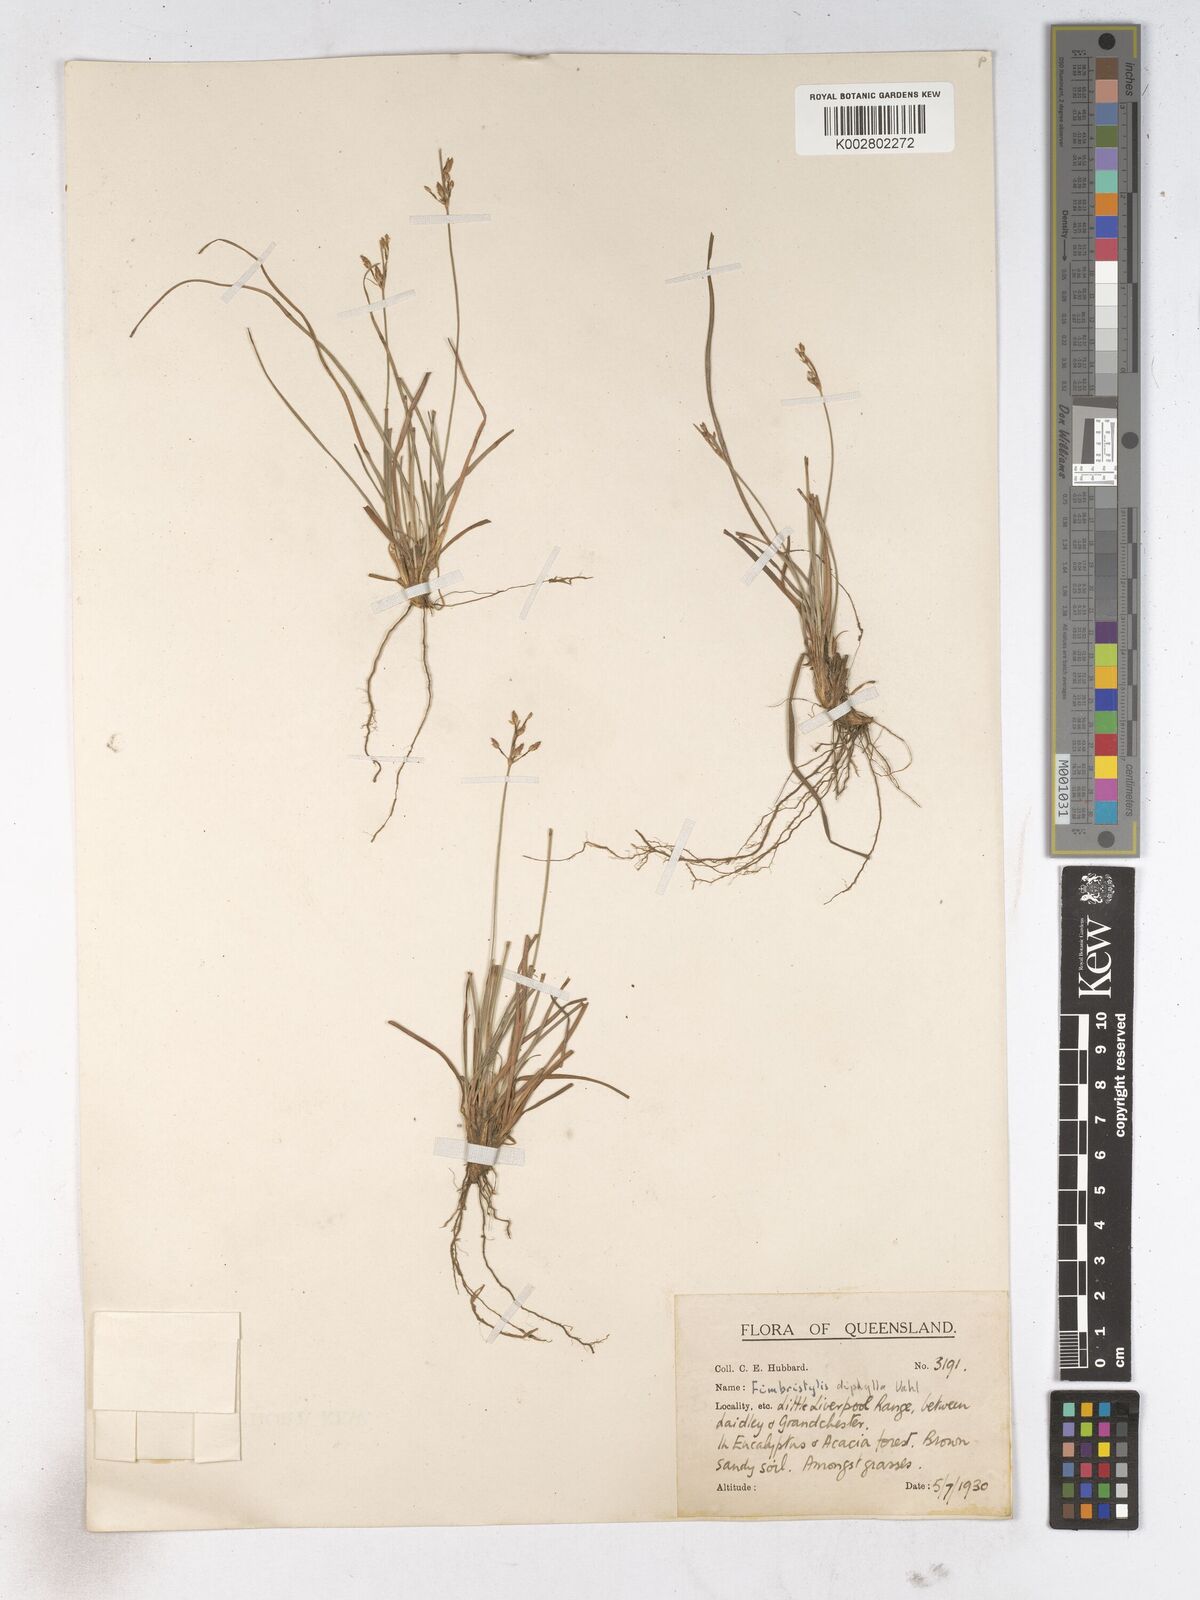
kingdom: Plantae
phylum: Tracheophyta
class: Liliopsida
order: Poales
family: Cyperaceae
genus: Fimbristylis
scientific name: Fimbristylis dichotoma
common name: Forked fimbry
